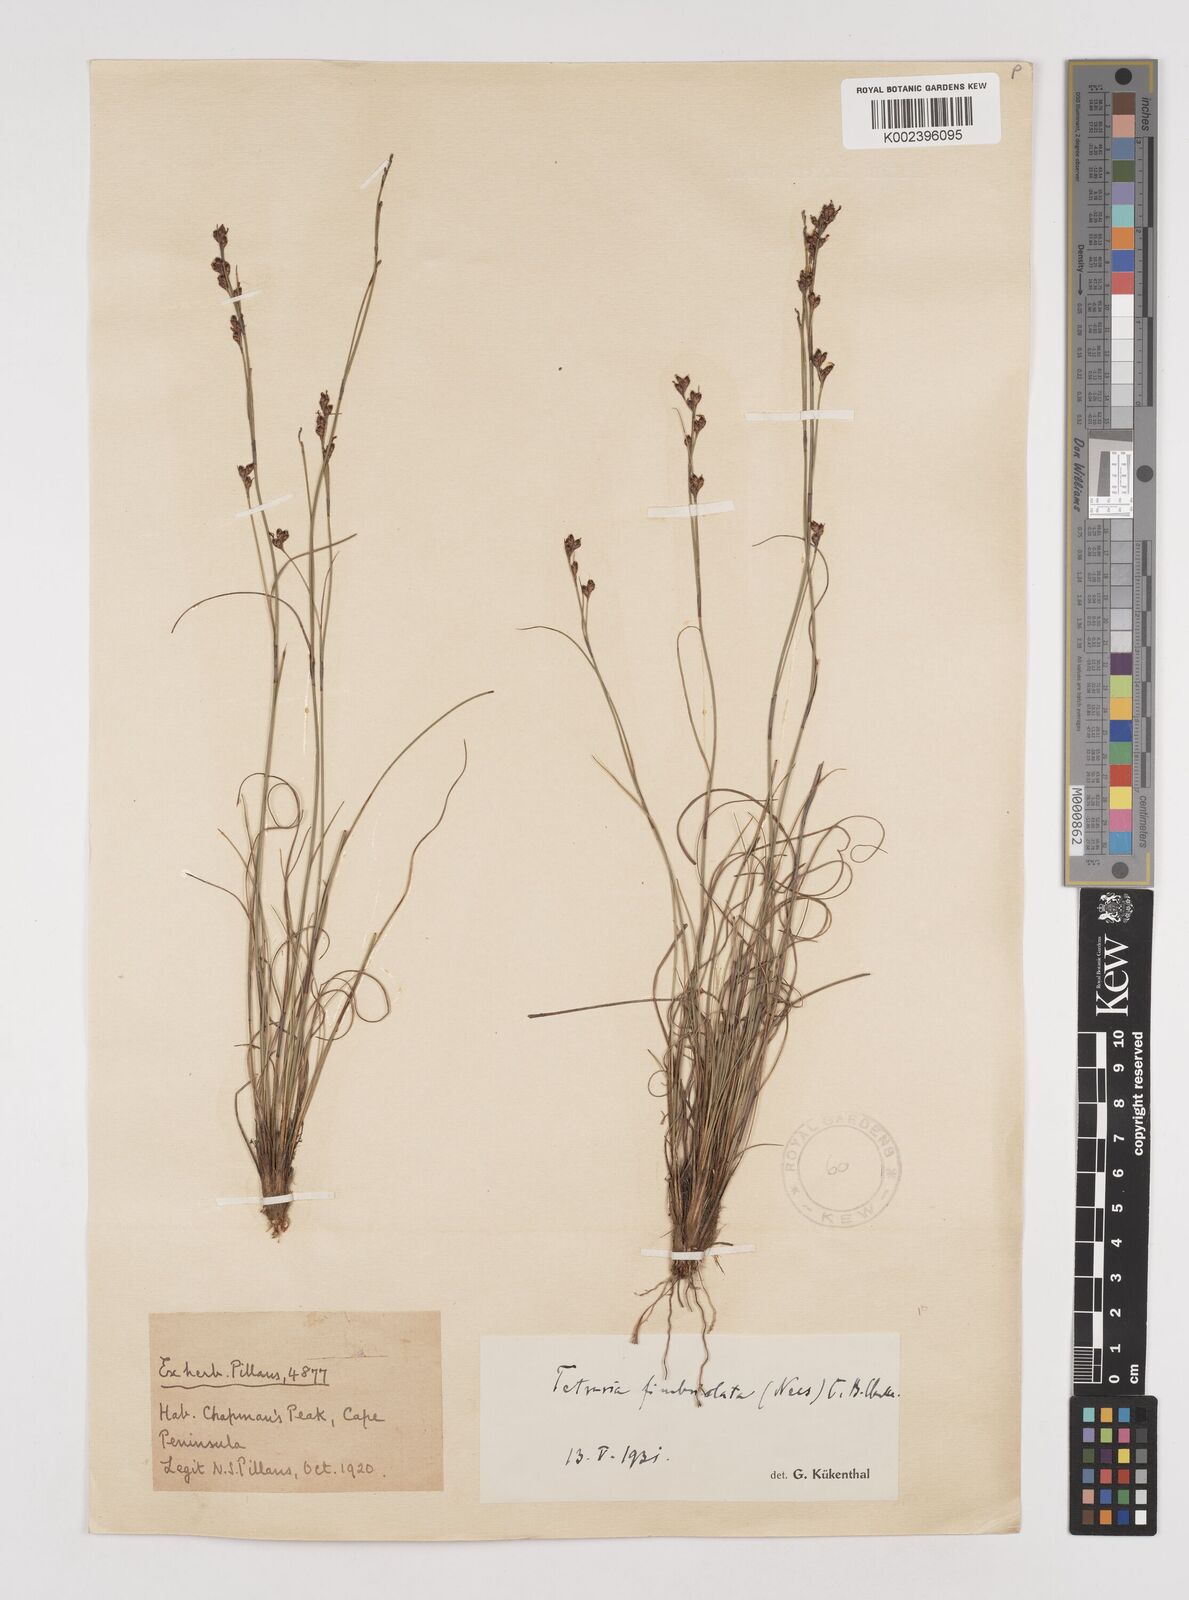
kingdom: Plantae
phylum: Tracheophyta
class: Liliopsida
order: Poales
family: Cyperaceae
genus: Tetraria
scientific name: Tetraria fimbriolata
